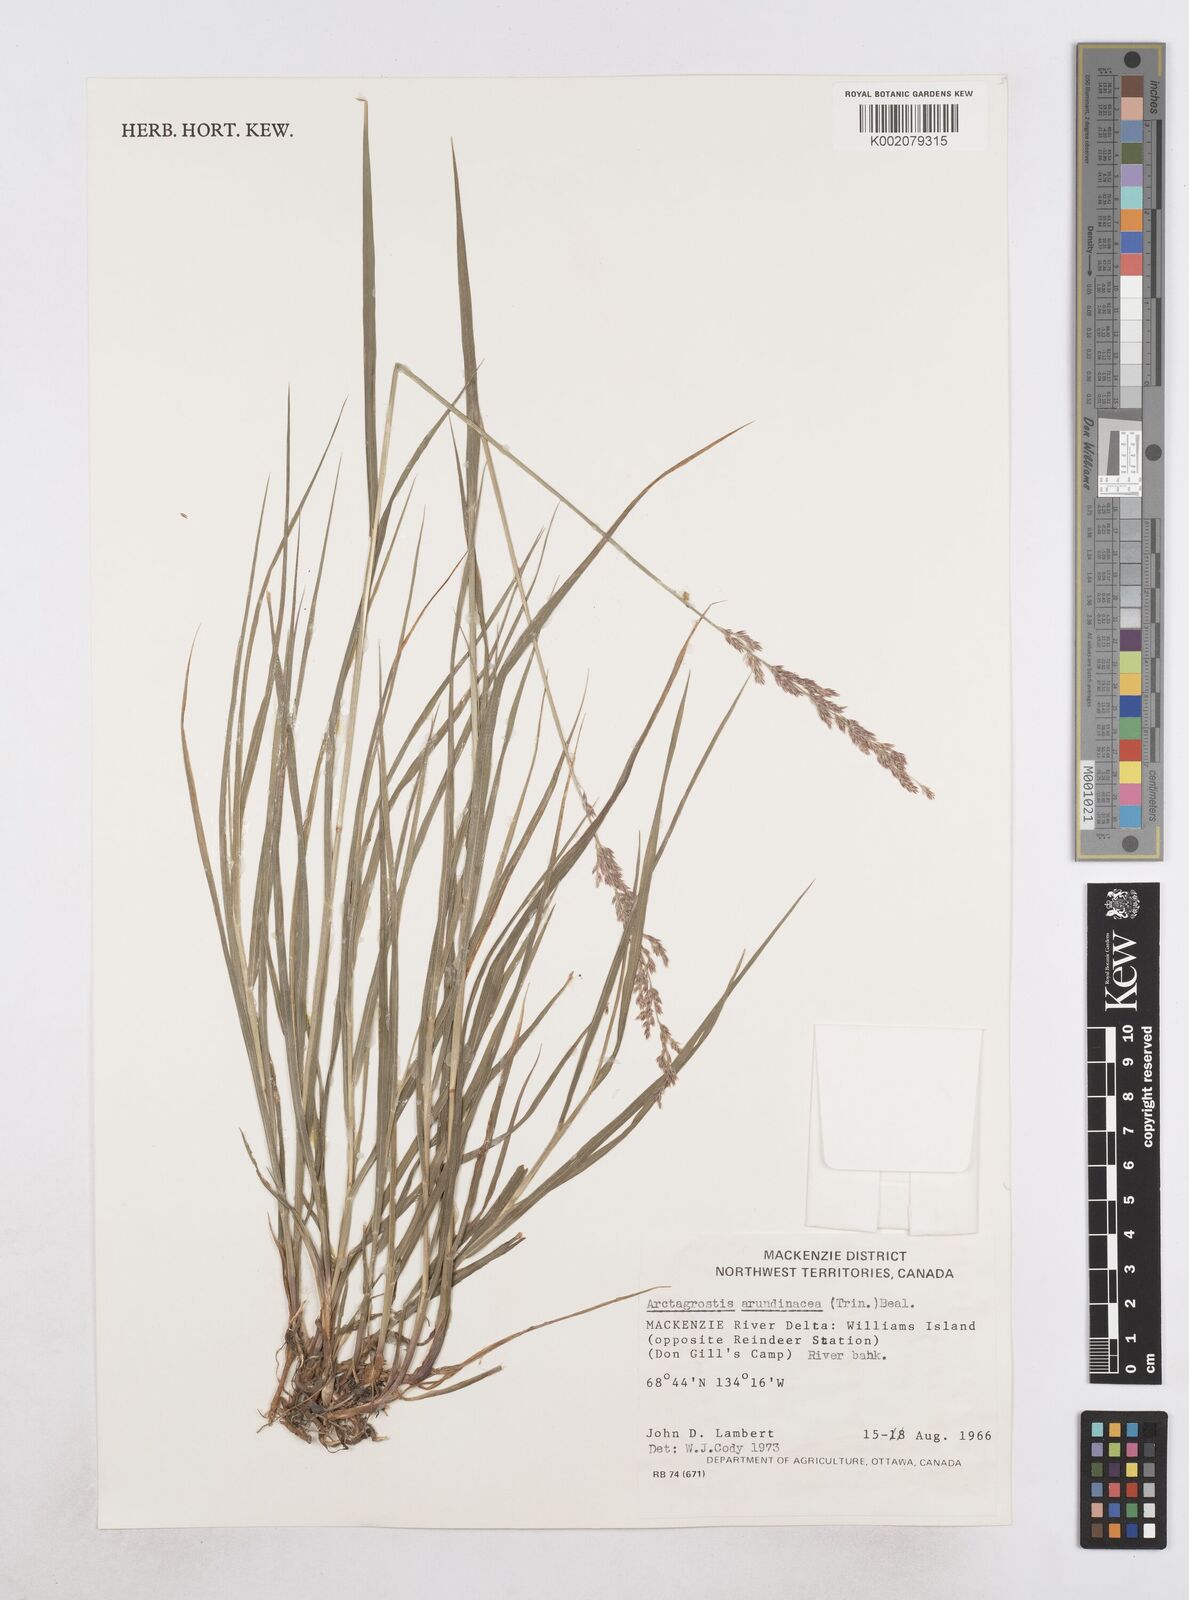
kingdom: Plantae
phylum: Tracheophyta
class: Liliopsida
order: Poales
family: Poaceae
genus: Arctagrostis
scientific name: Arctagrostis arundinacea
